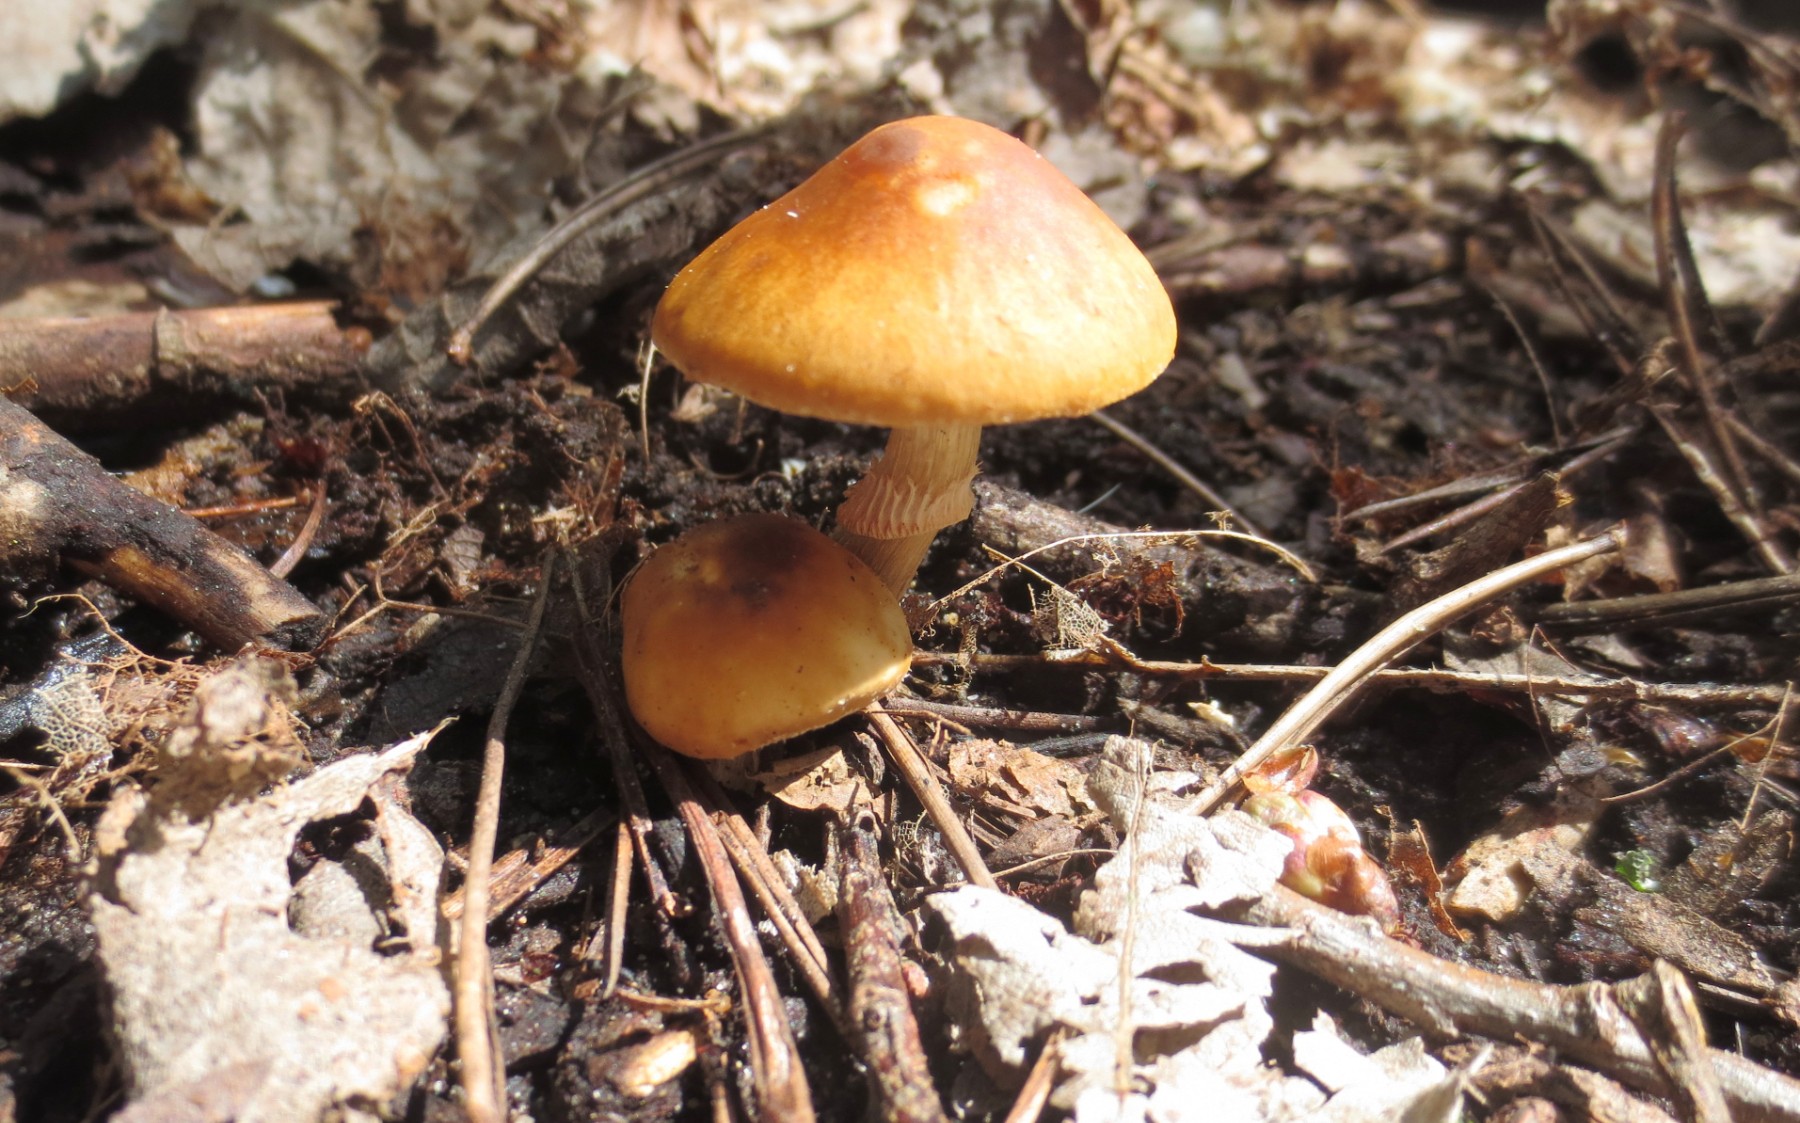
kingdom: Fungi
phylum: Basidiomycota
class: Agaricomycetes
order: Agaricales
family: Bolbitiaceae
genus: Conocybe
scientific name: Conocybe aporos
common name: tidlig dansehat
